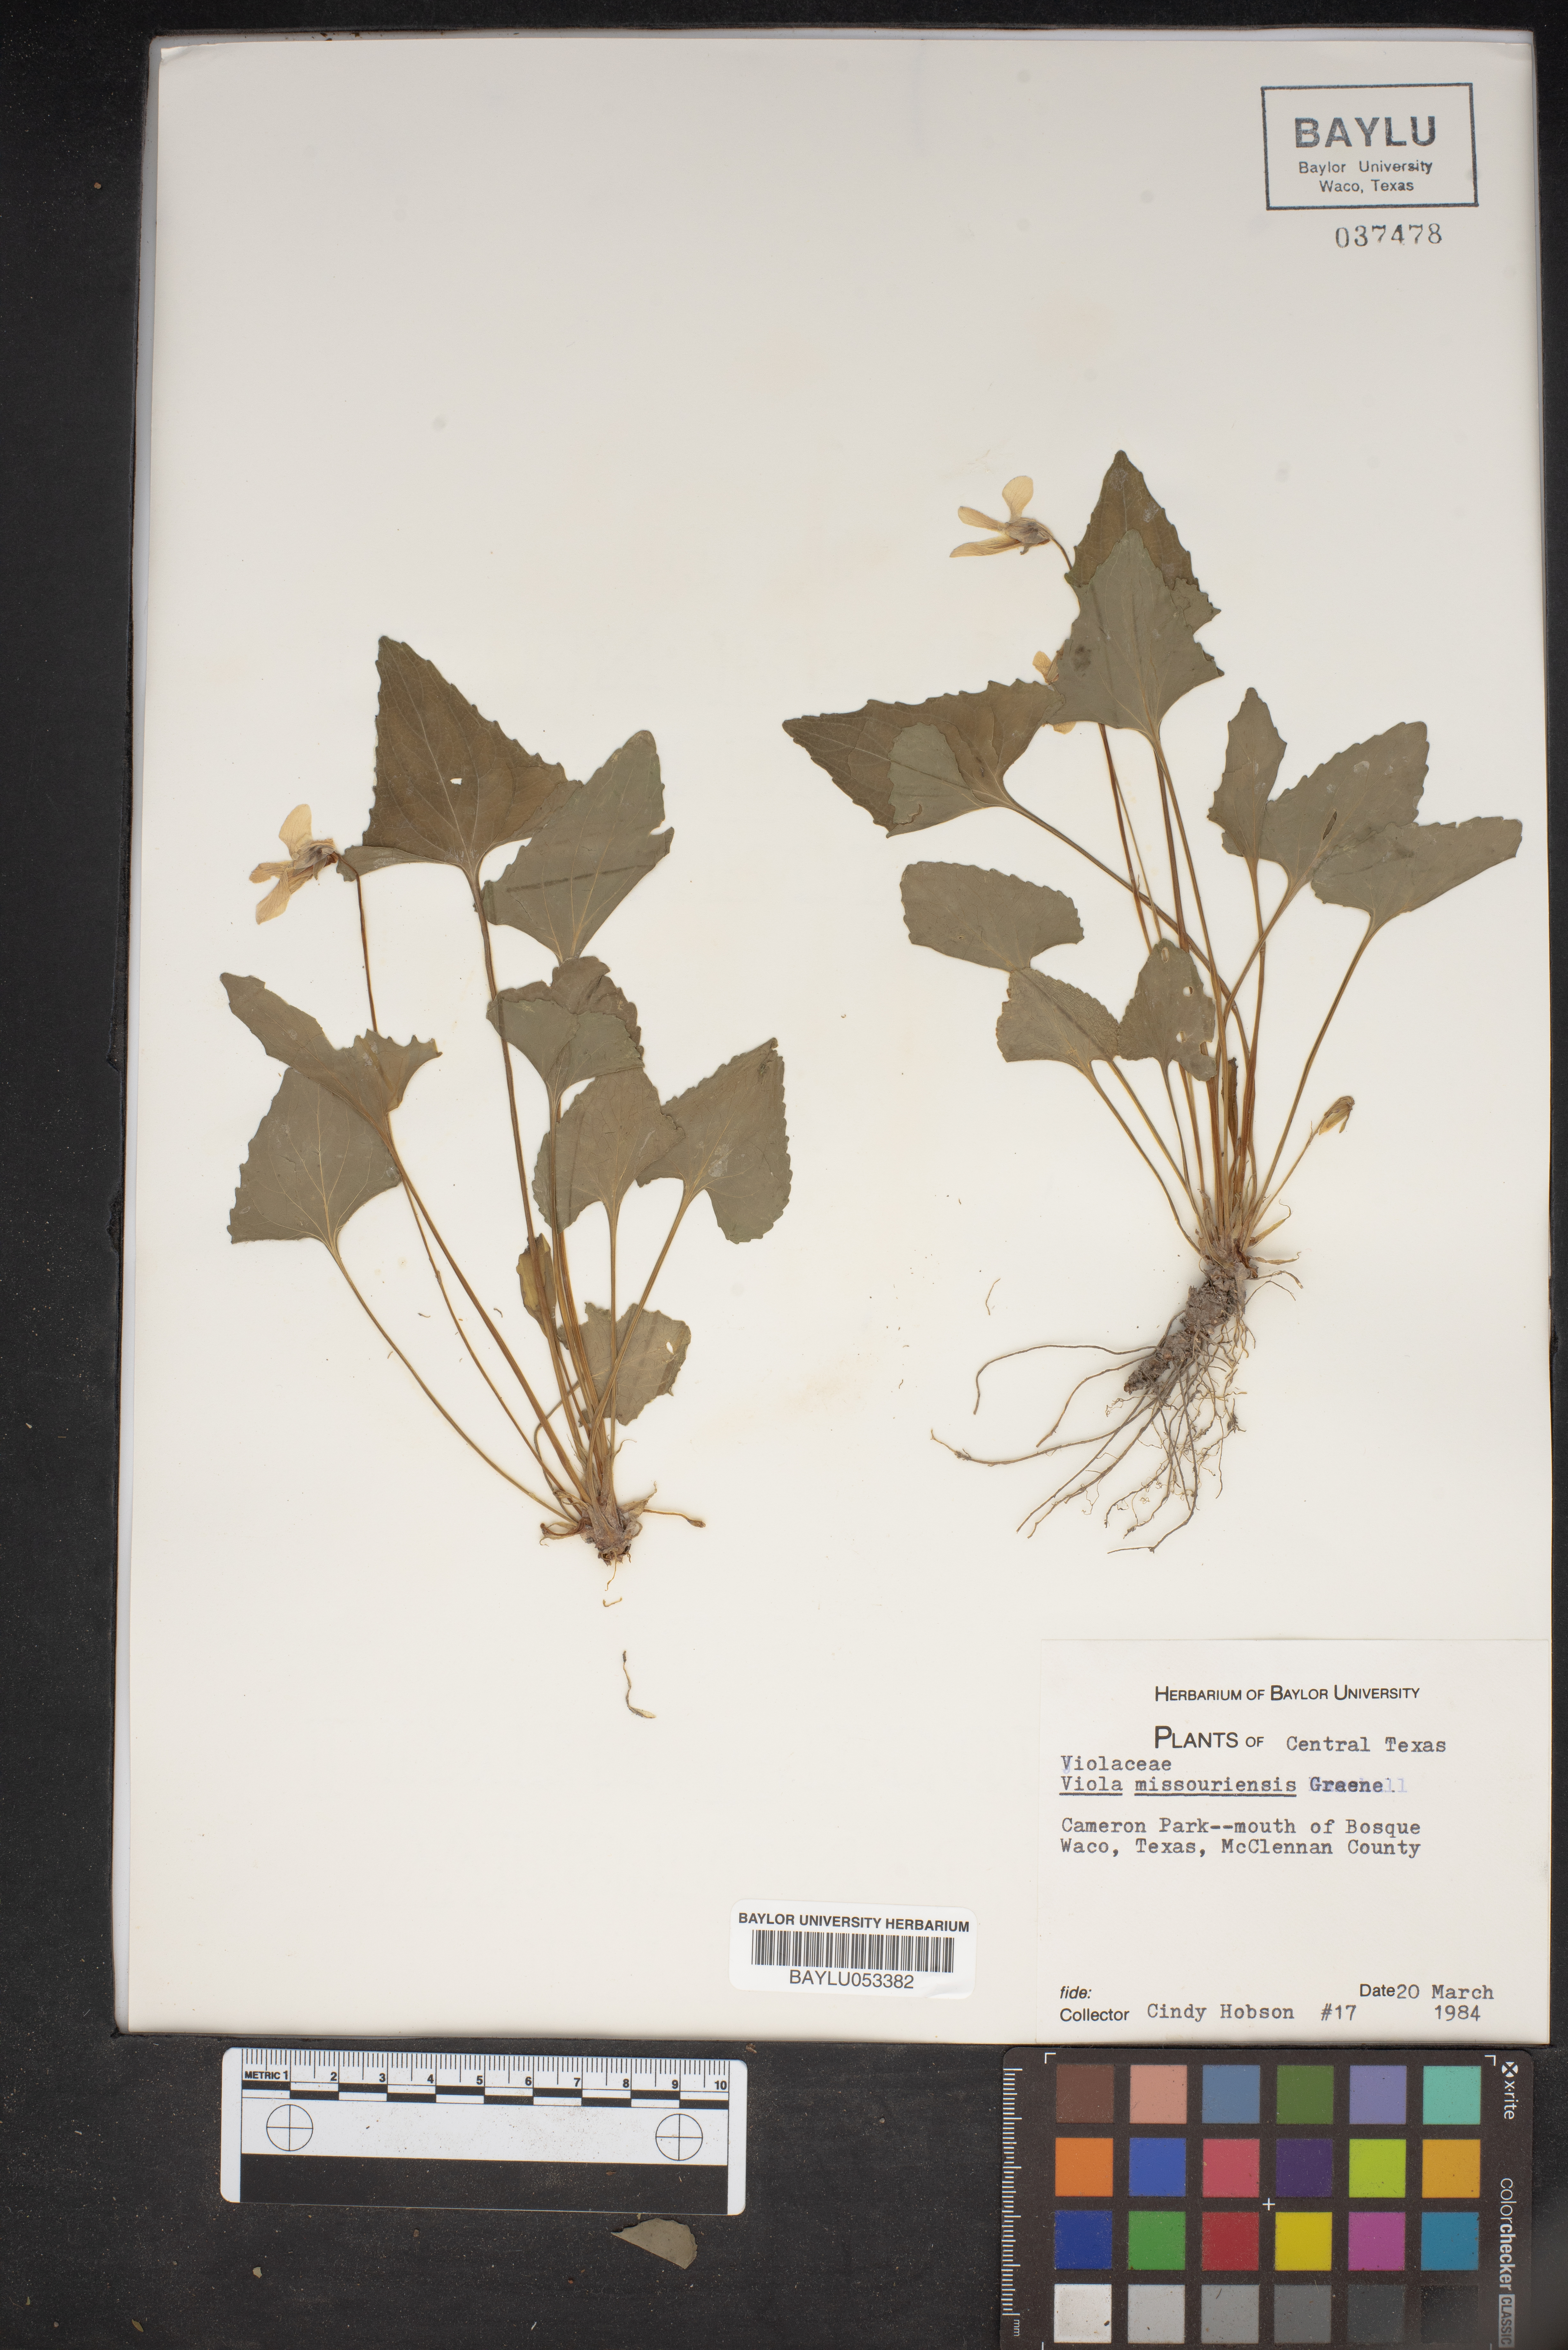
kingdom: Plantae
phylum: Tracheophyta
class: Magnoliopsida
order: Malpighiales
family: Violaceae
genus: Viola
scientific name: Viola missouriensis
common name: Missouri violet
